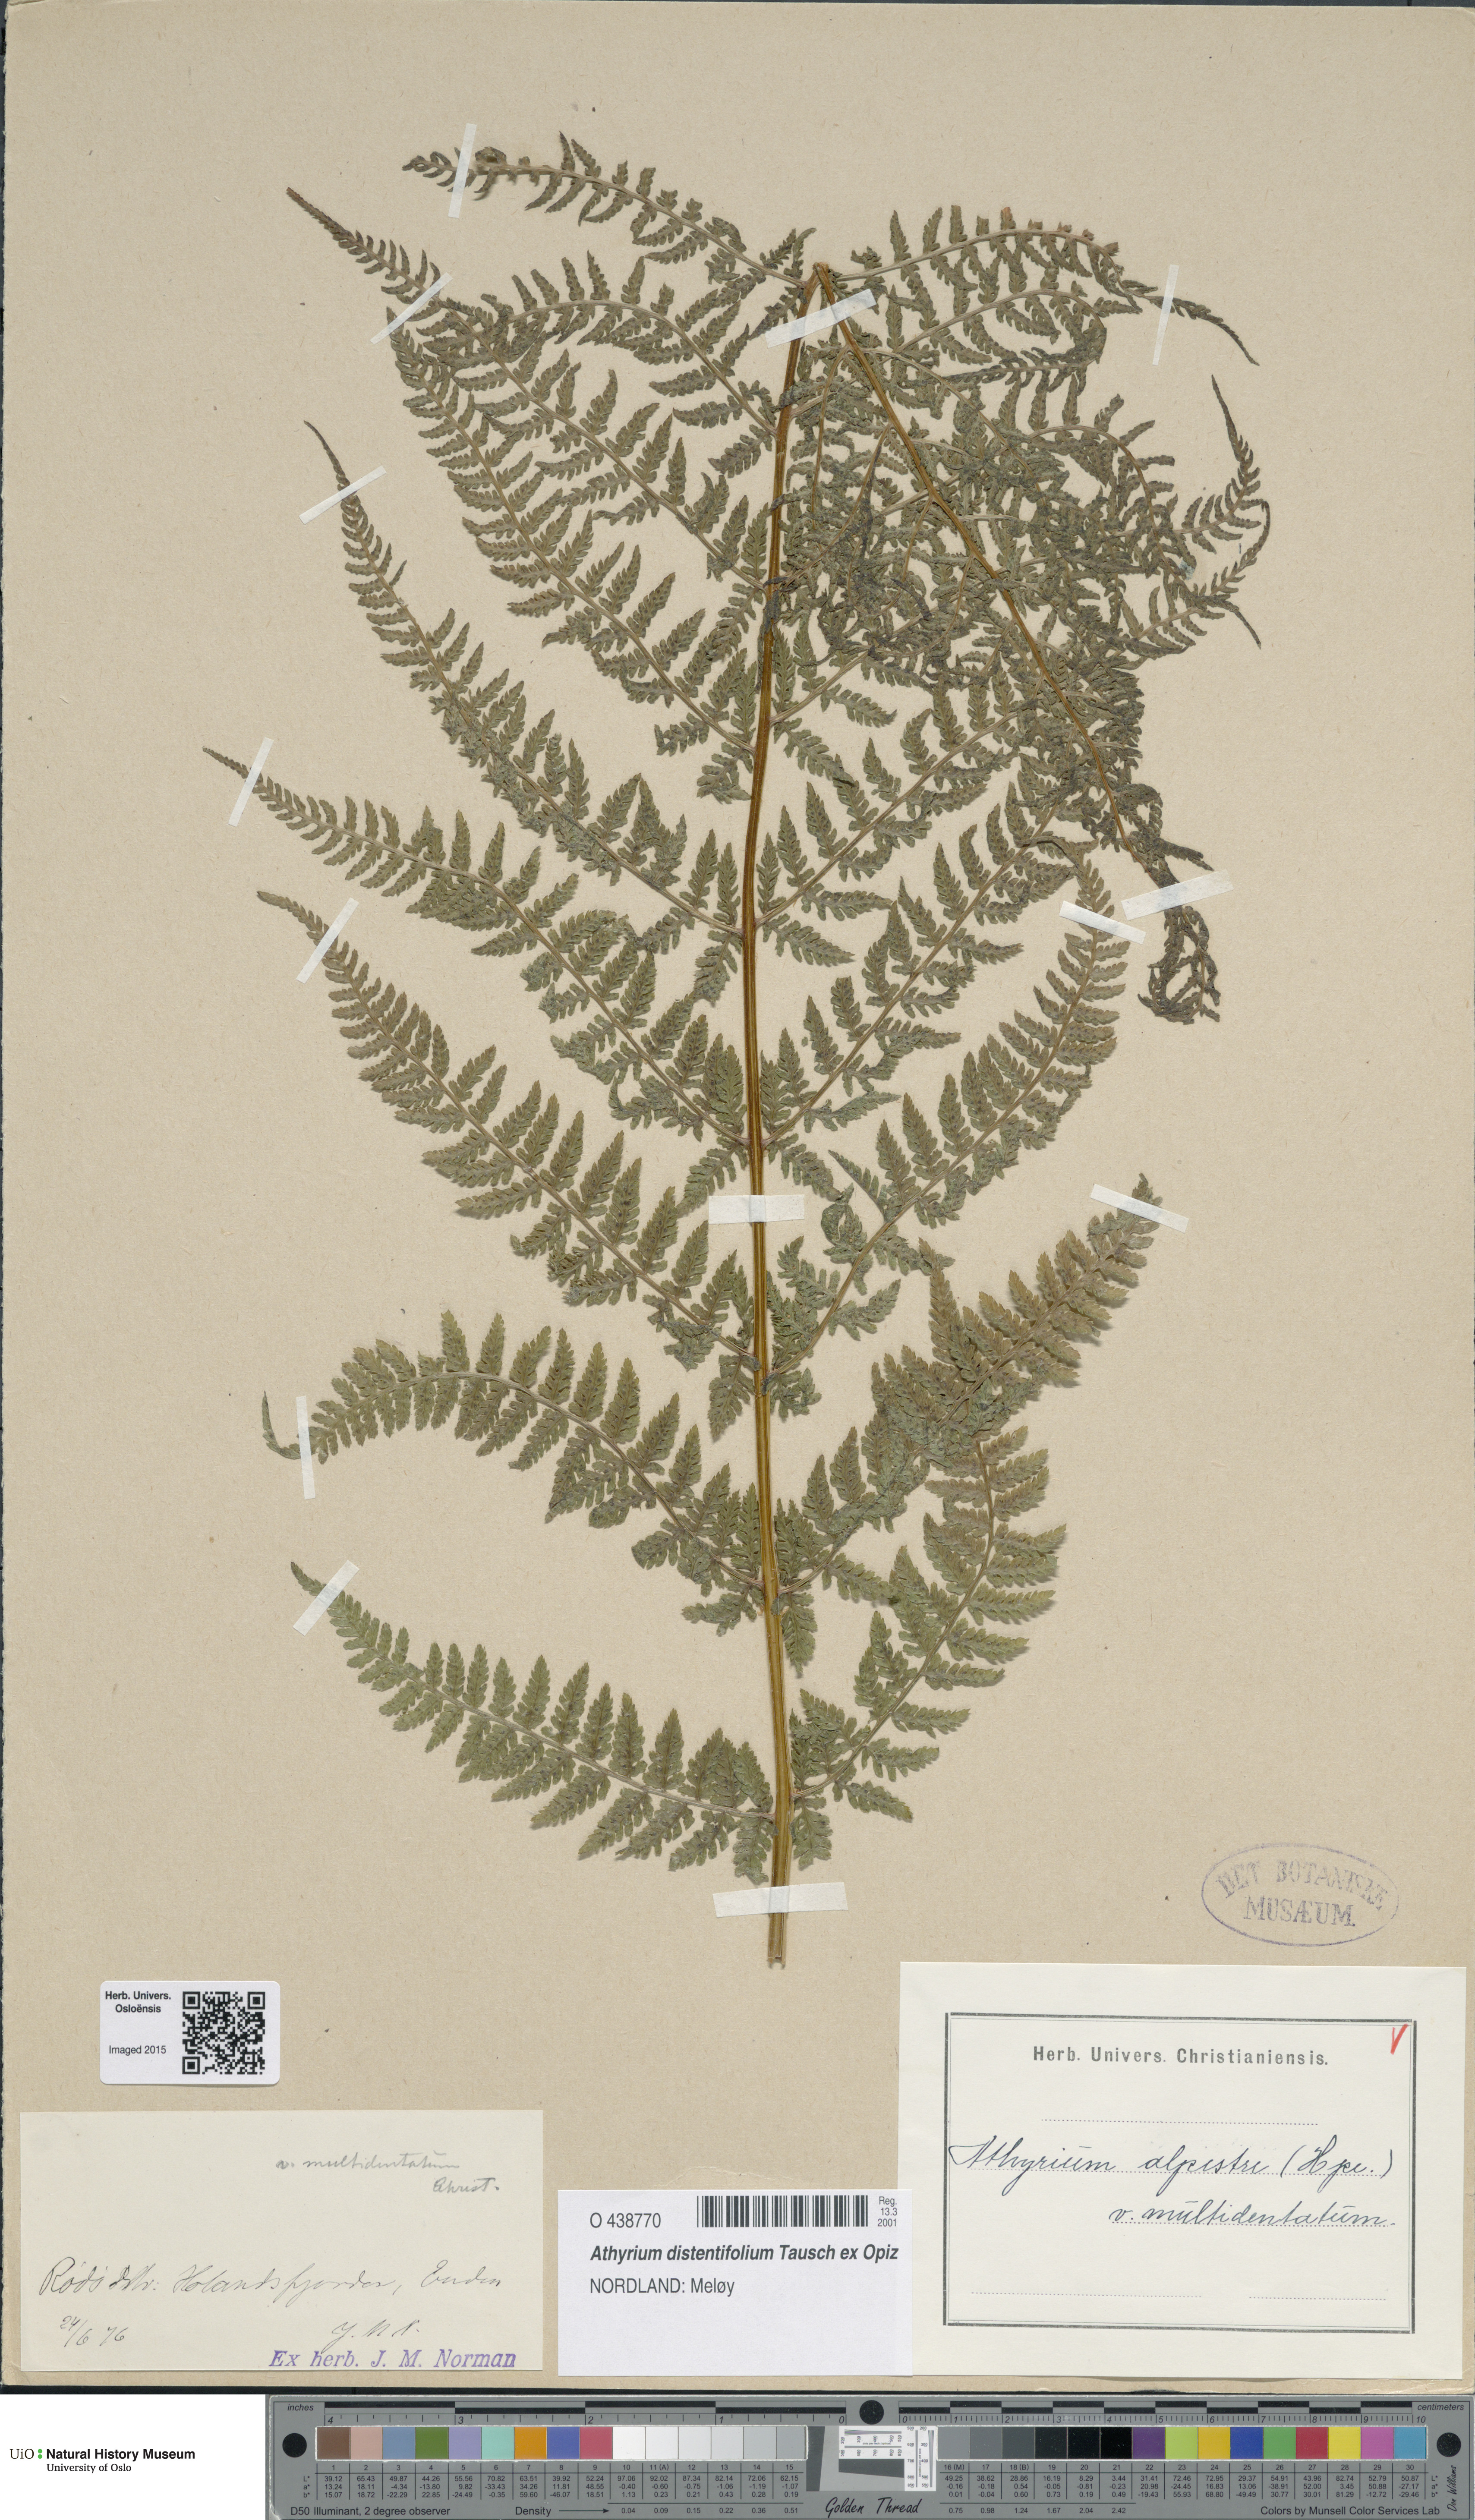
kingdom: Plantae
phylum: Tracheophyta
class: Polypodiopsida
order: Polypodiales
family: Athyriaceae
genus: Pseudathyrium
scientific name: Pseudathyrium alpestre
